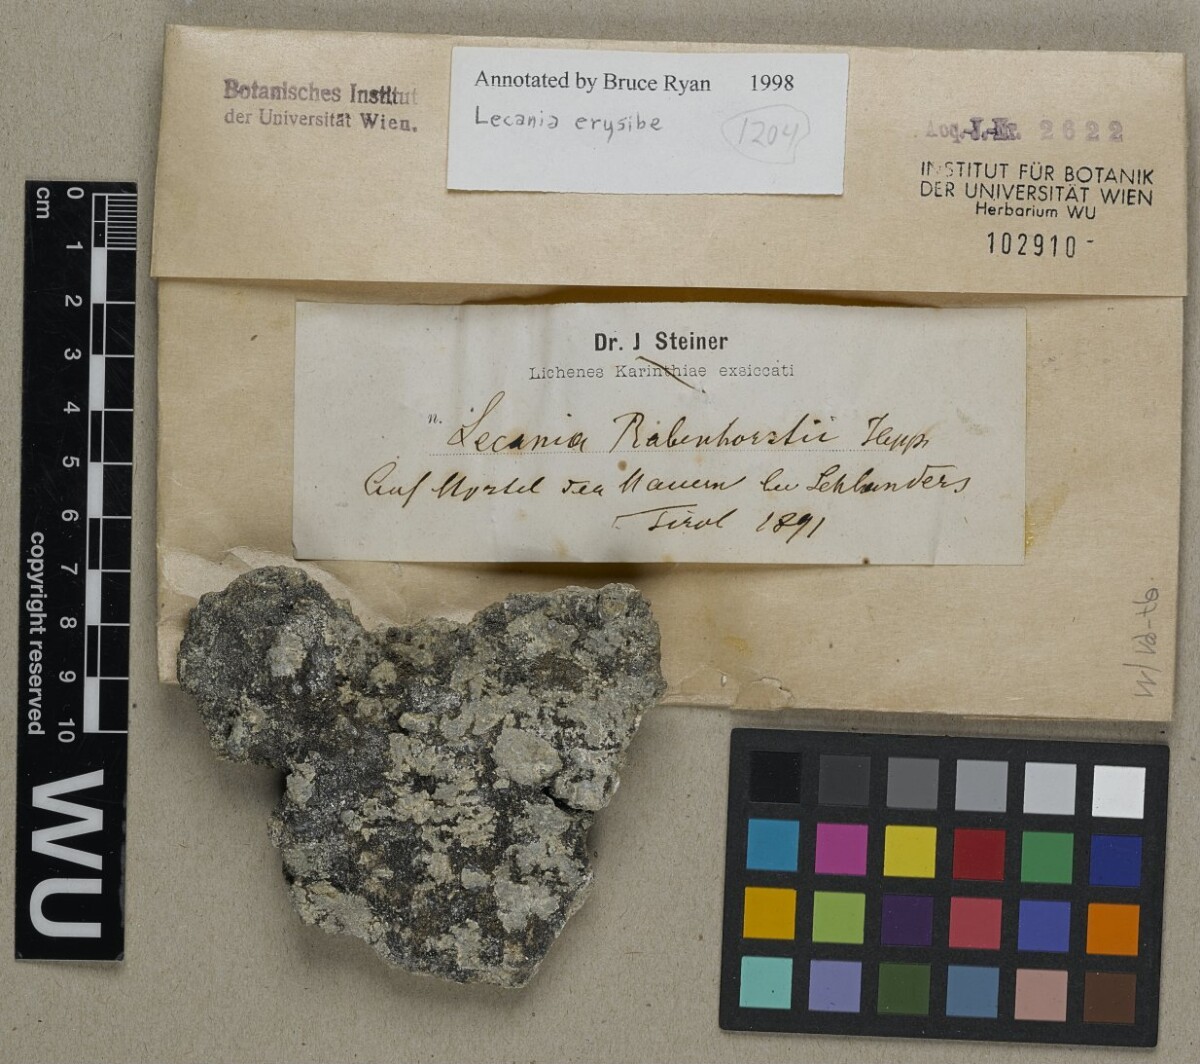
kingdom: Fungi
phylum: Ascomycota
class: Lecanoromycetes
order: Lecanorales
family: Ramalinaceae
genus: Lecania
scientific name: Lecania erysibe
